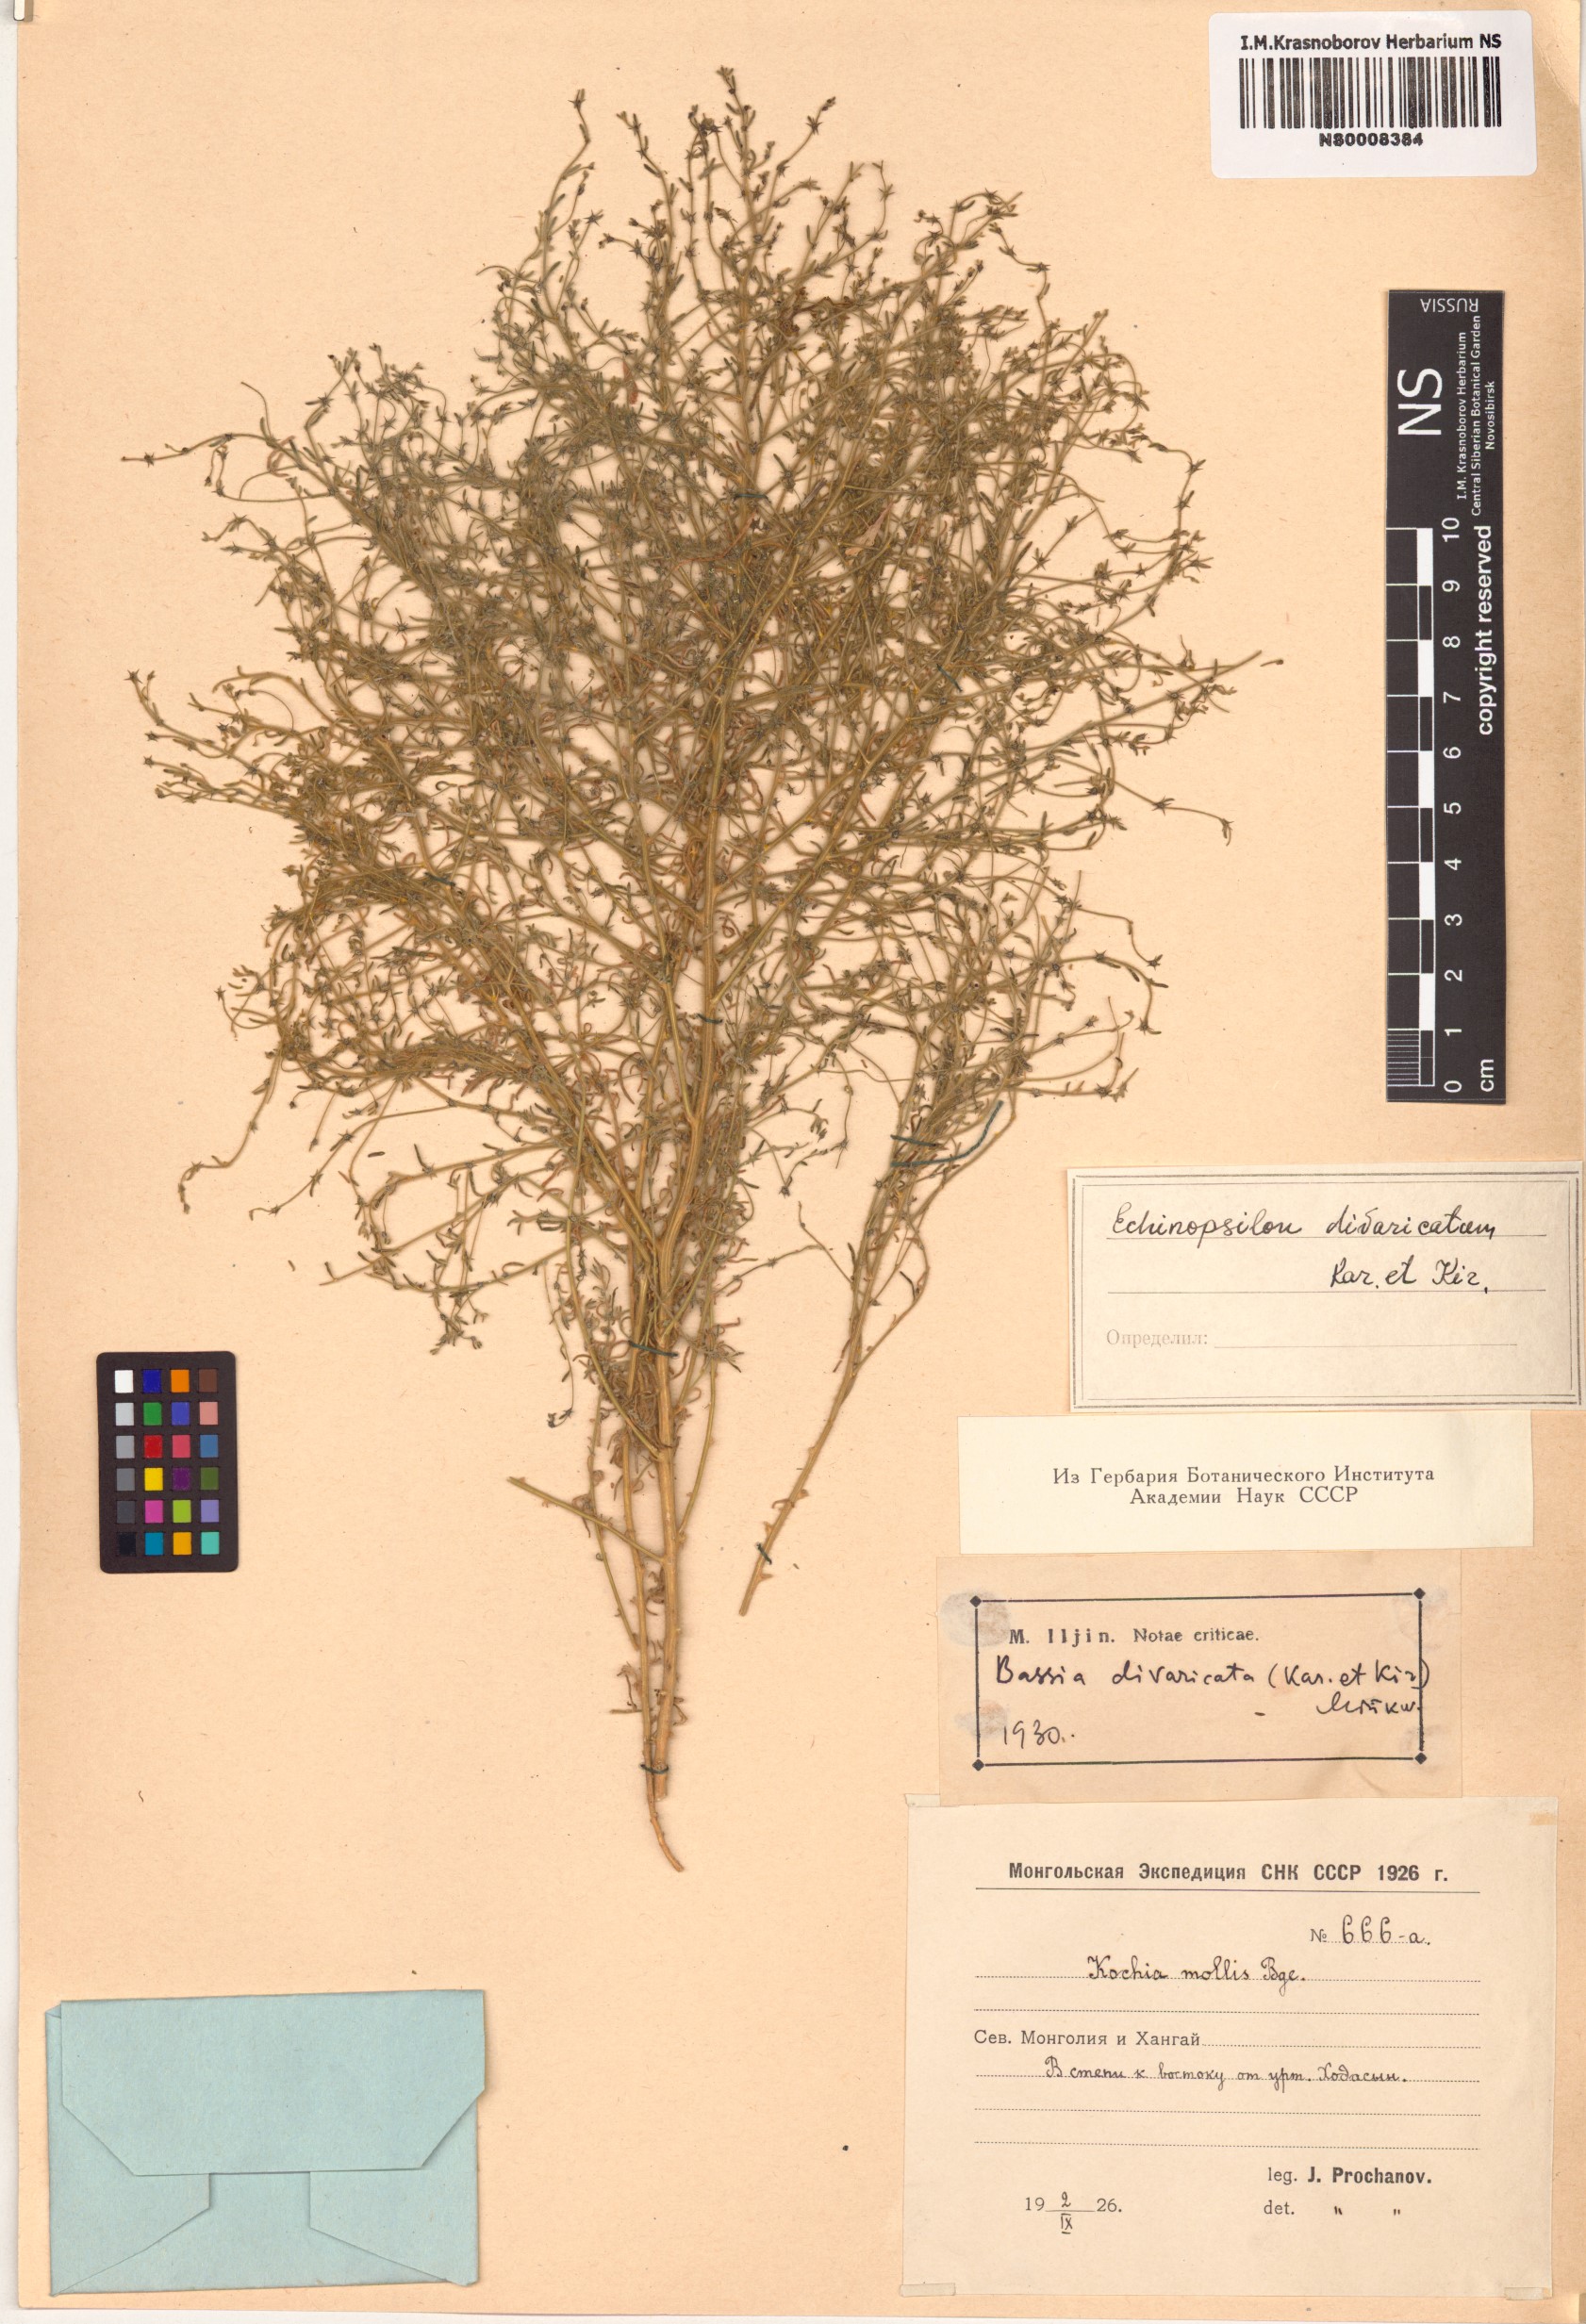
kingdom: Plantae
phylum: Tracheophyta
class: Magnoliopsida
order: Caryophyllales
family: Amaranthaceae
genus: Grubovia
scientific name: Grubovia dasyphylla
